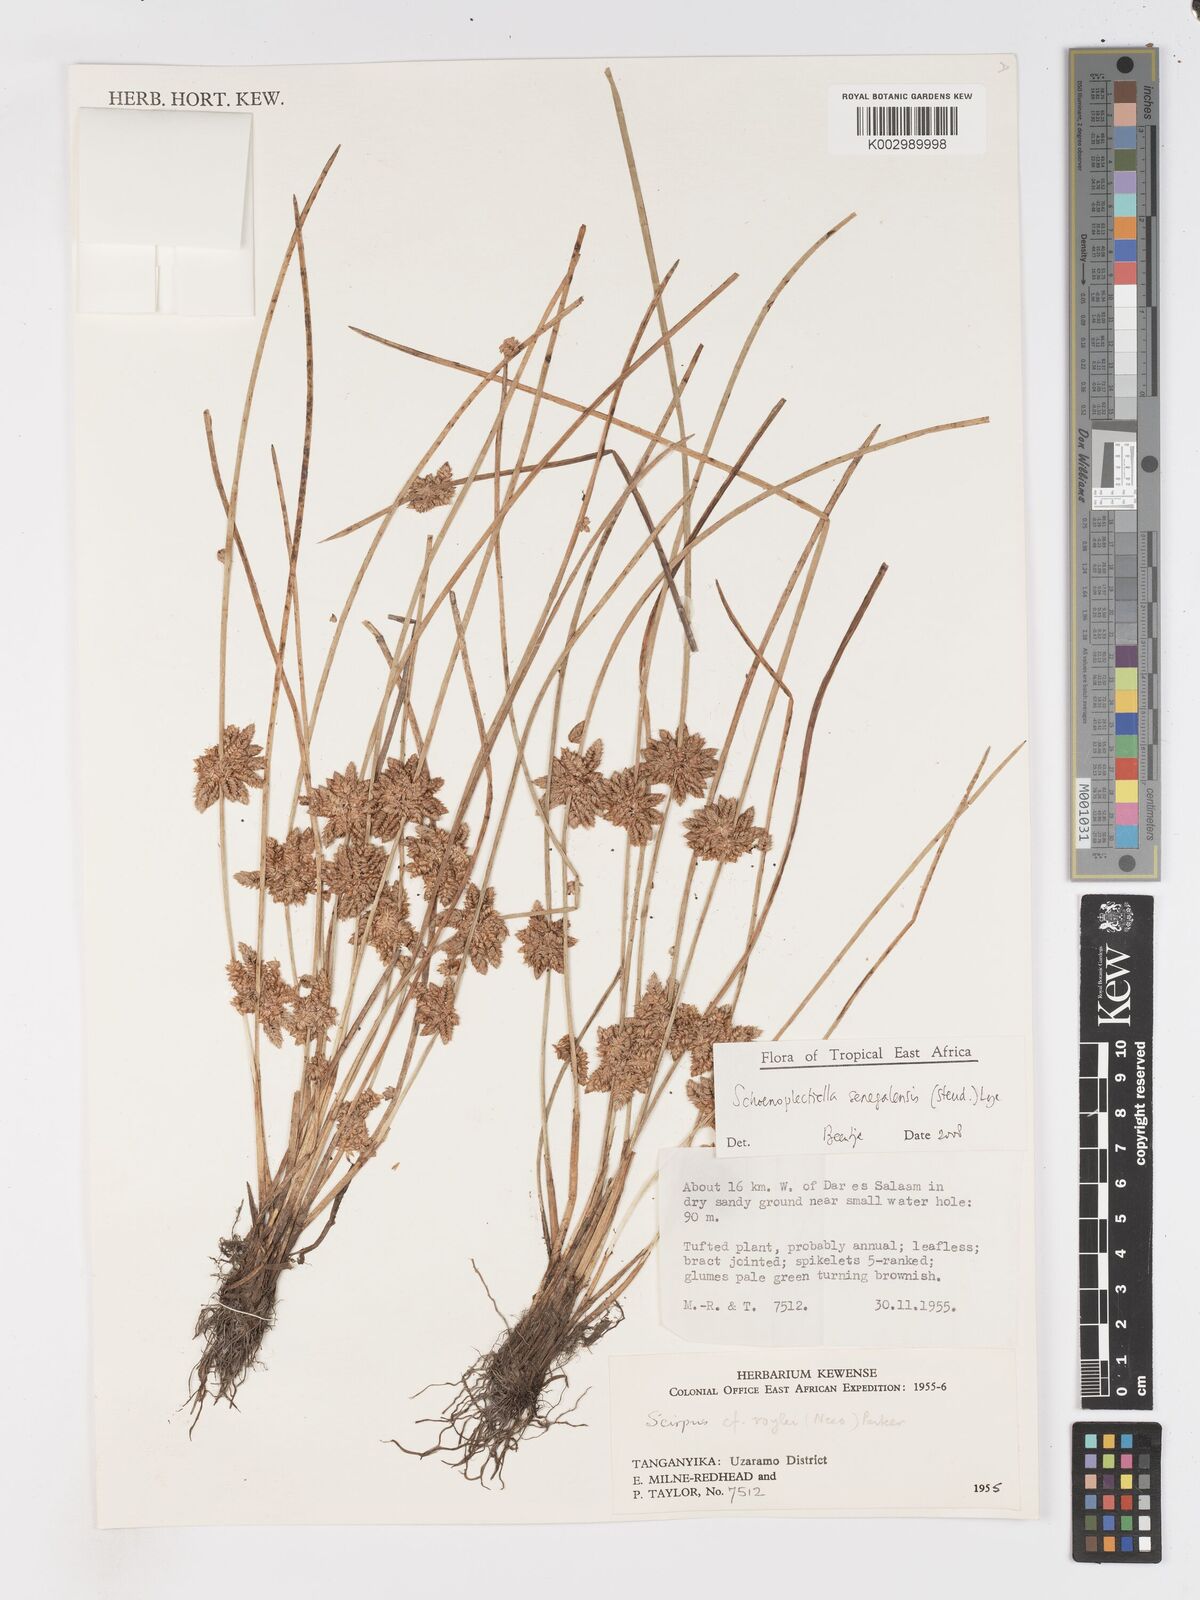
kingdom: Plantae
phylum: Tracheophyta
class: Liliopsida
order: Poales
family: Cyperaceae
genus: Schoenoplectiella
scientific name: Schoenoplectiella senegalensis
